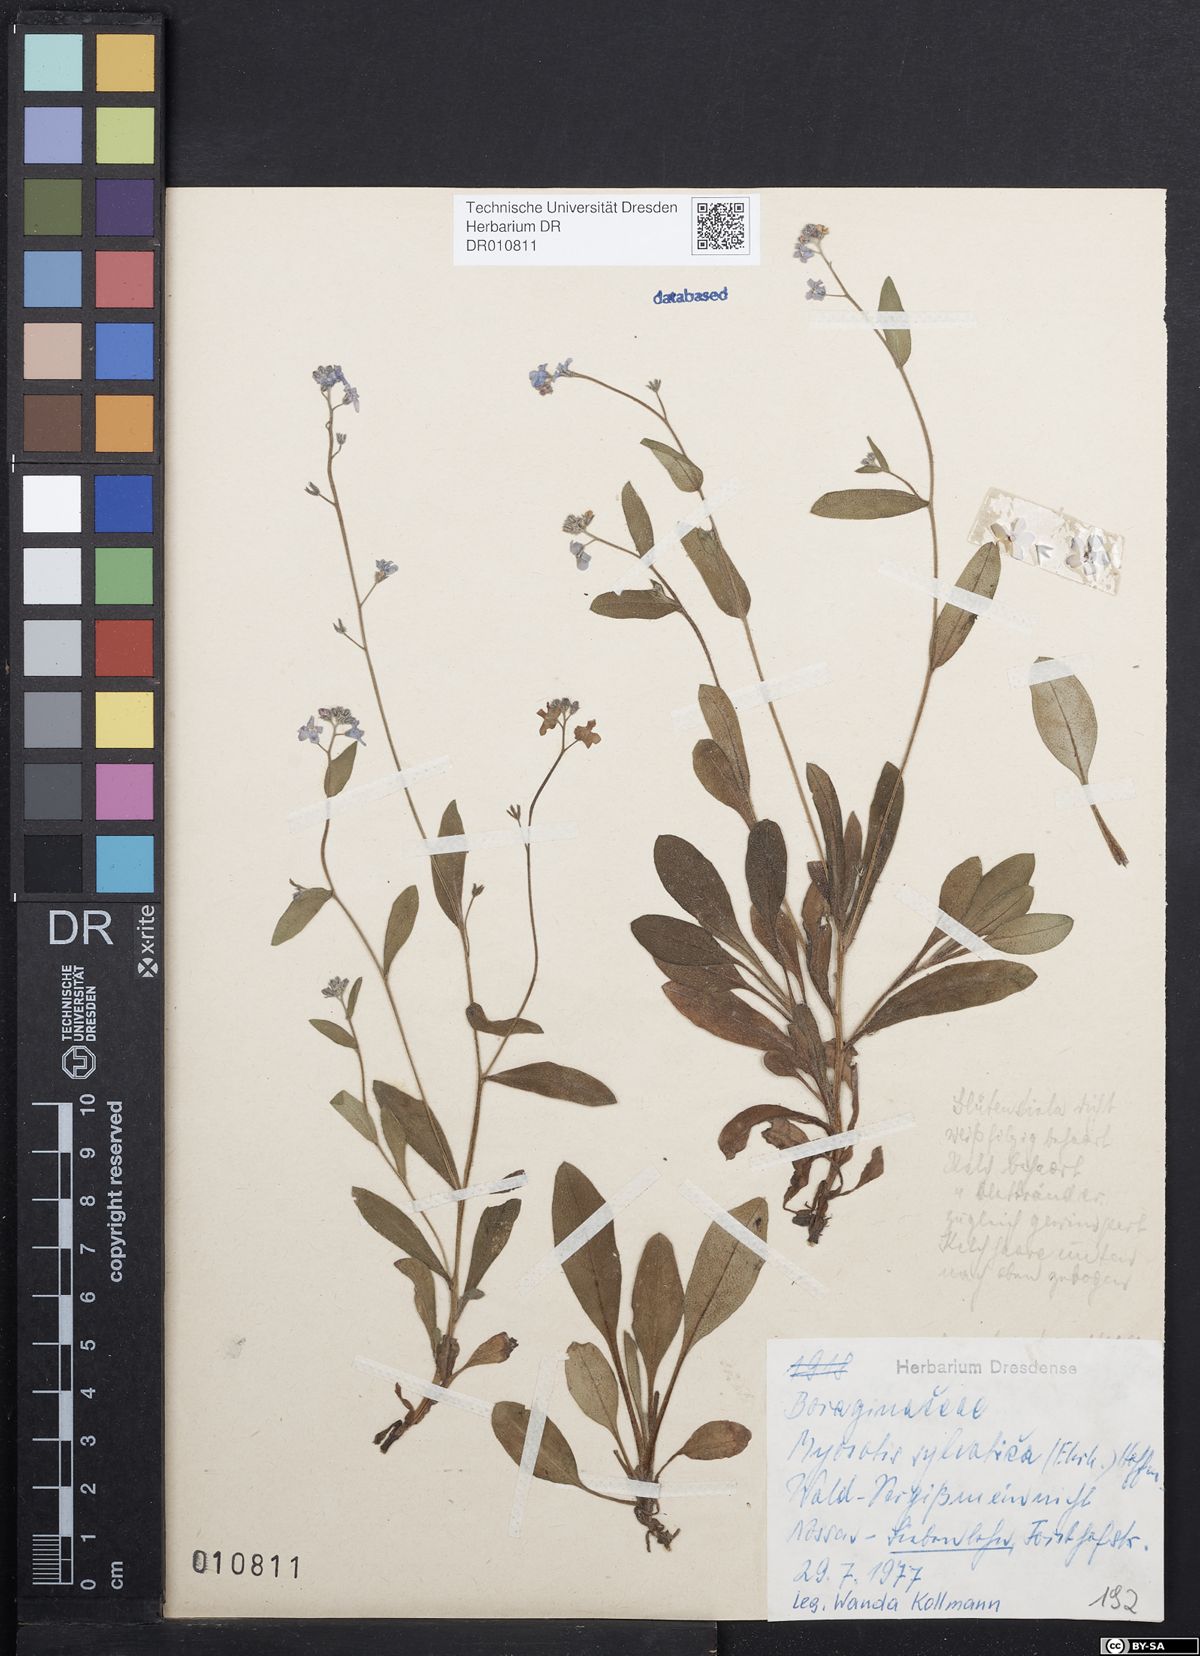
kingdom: Plantae
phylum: Tracheophyta
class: Magnoliopsida
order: Boraginales
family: Boraginaceae
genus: Myosotis
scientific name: Myosotis sylvatica
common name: Wood forget-me-not
